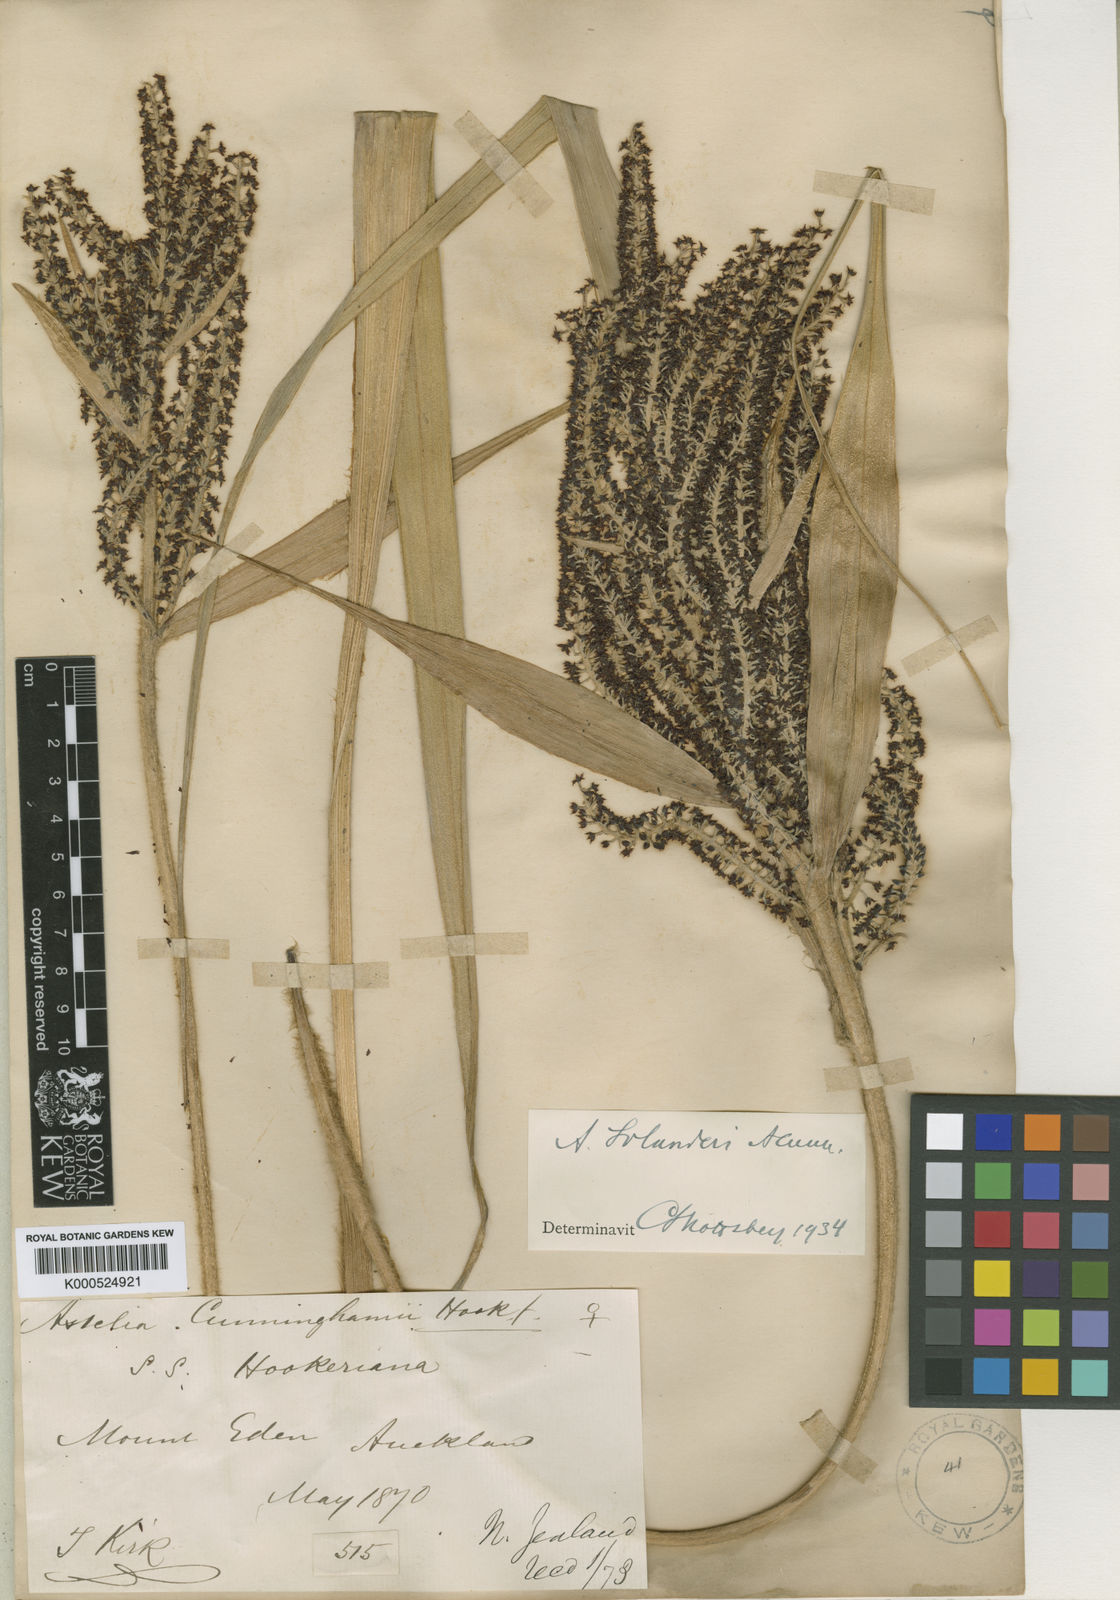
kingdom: Plantae
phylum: Tracheophyta
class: Liliopsida
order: Asparagales
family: Asteliaceae
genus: Astelia
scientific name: Astelia solandri
